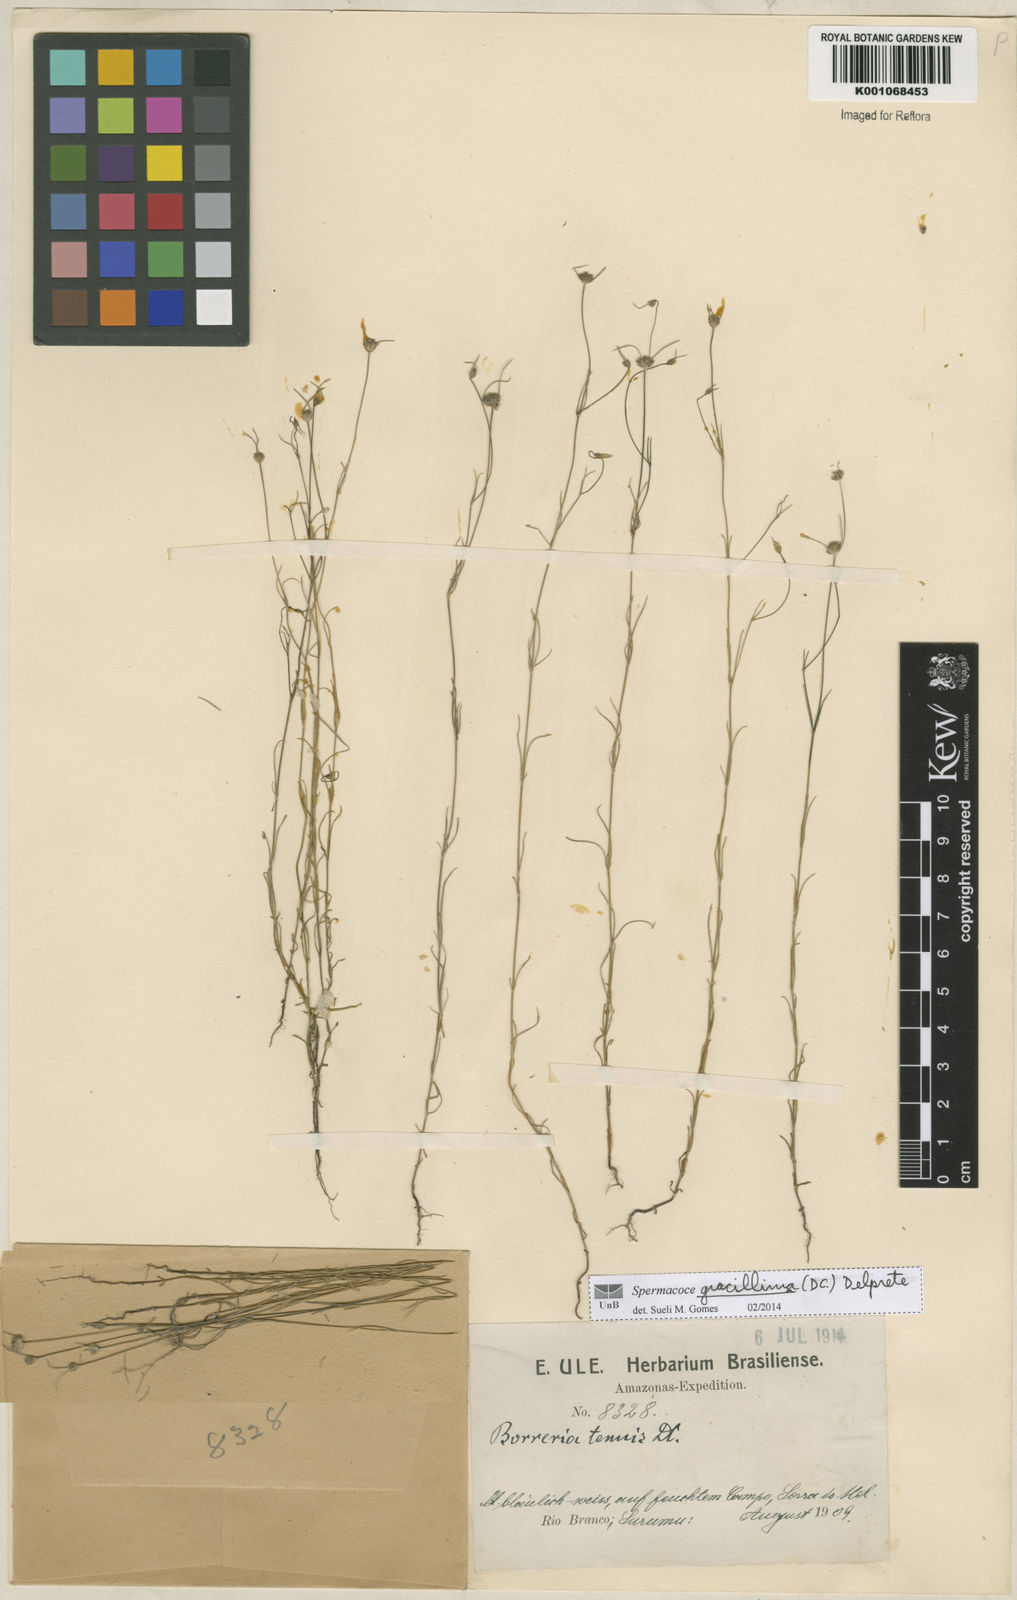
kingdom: Plantae
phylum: Tracheophyta
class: Magnoliopsida
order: Gentianales
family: Rubiaceae
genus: Spermacoce
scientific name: Spermacoce gracillima
